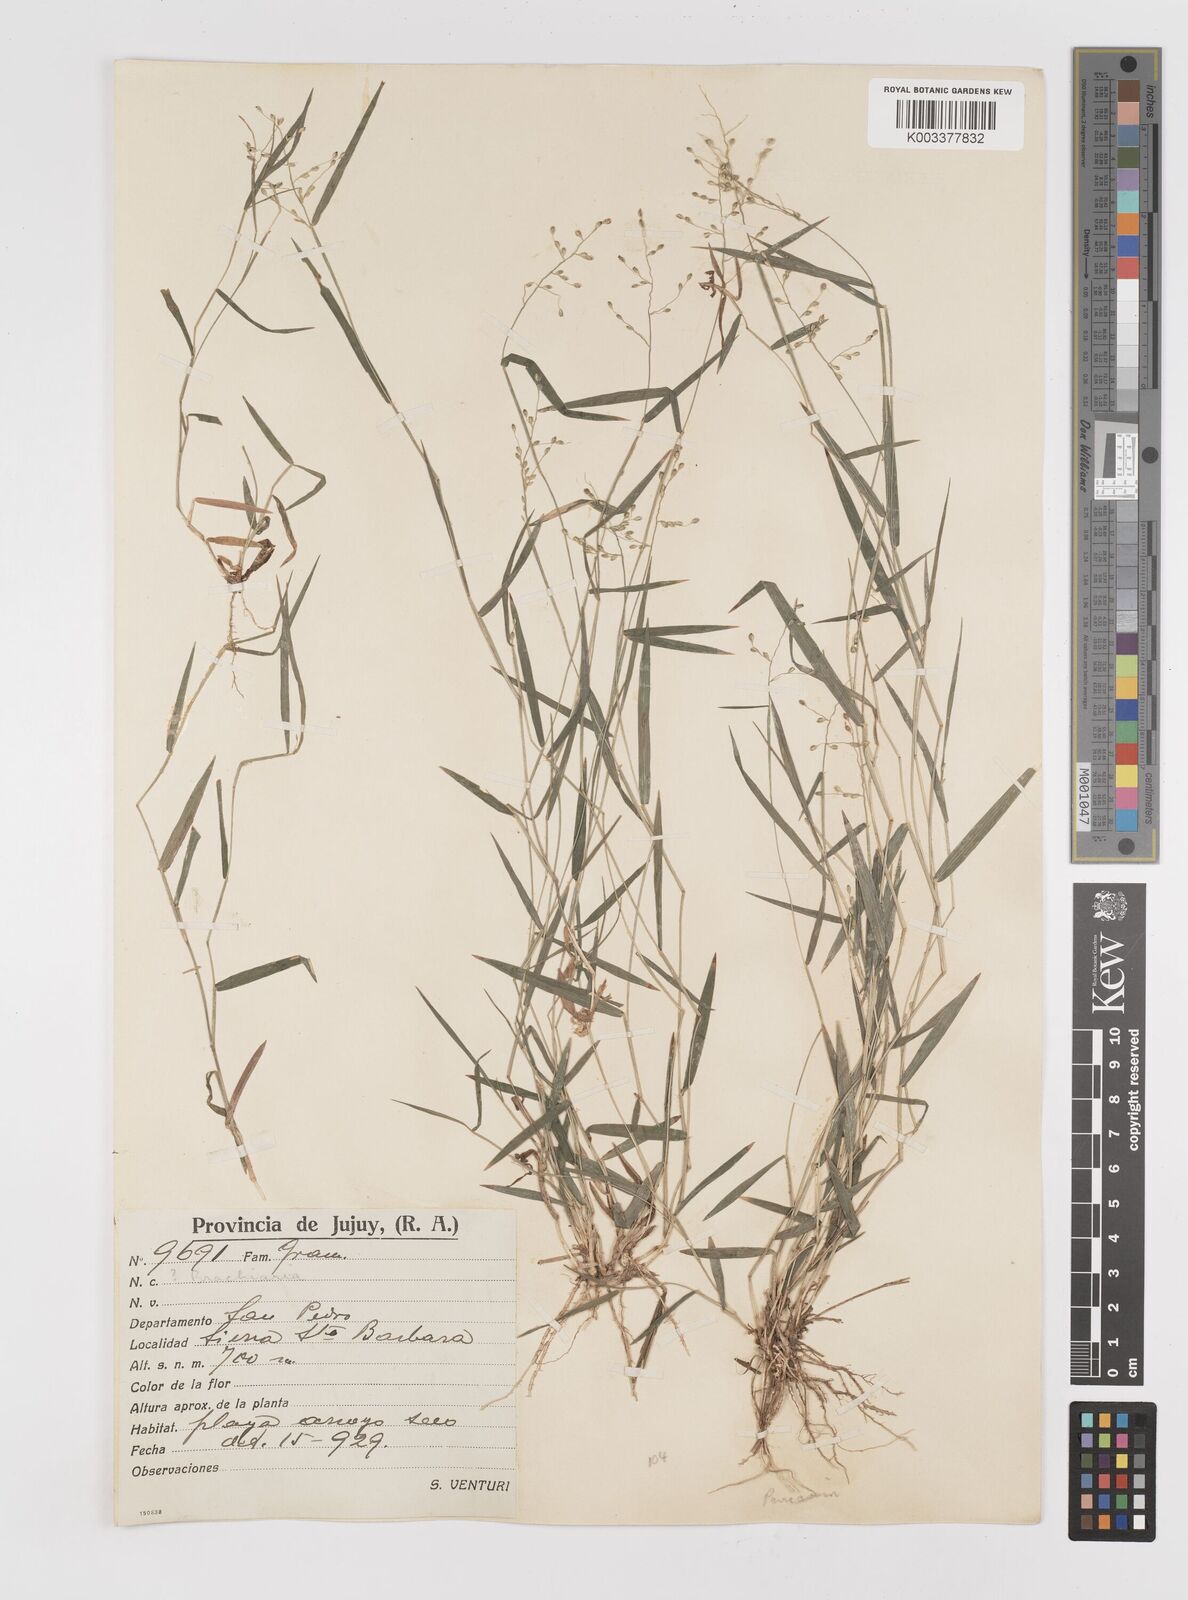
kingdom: Plantae
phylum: Tracheophyta
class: Liliopsida
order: Poales
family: Poaceae
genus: Dichanthelium
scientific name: Dichanthelium sabulorum
